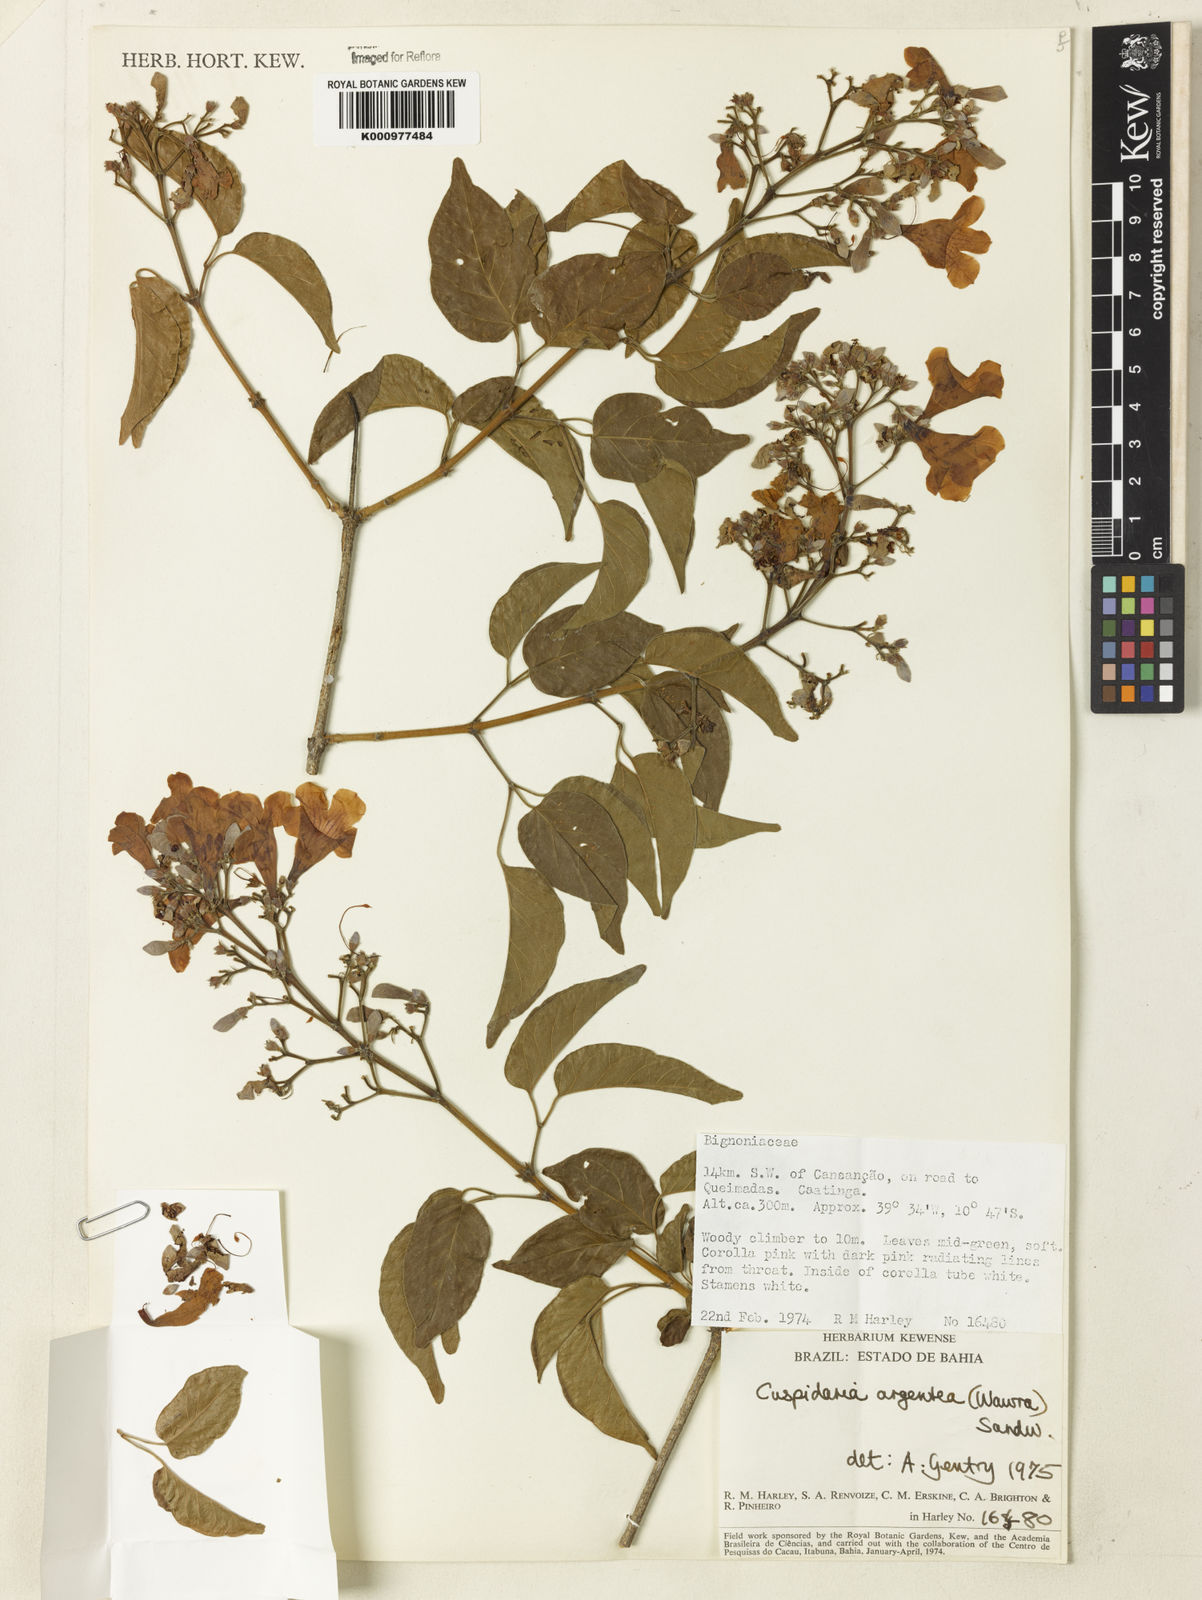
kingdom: Plantae
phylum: Tracheophyta
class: Magnoliopsida
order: Lamiales
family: Bignoniaceae
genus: Cuspidaria
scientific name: Cuspidaria argentea
